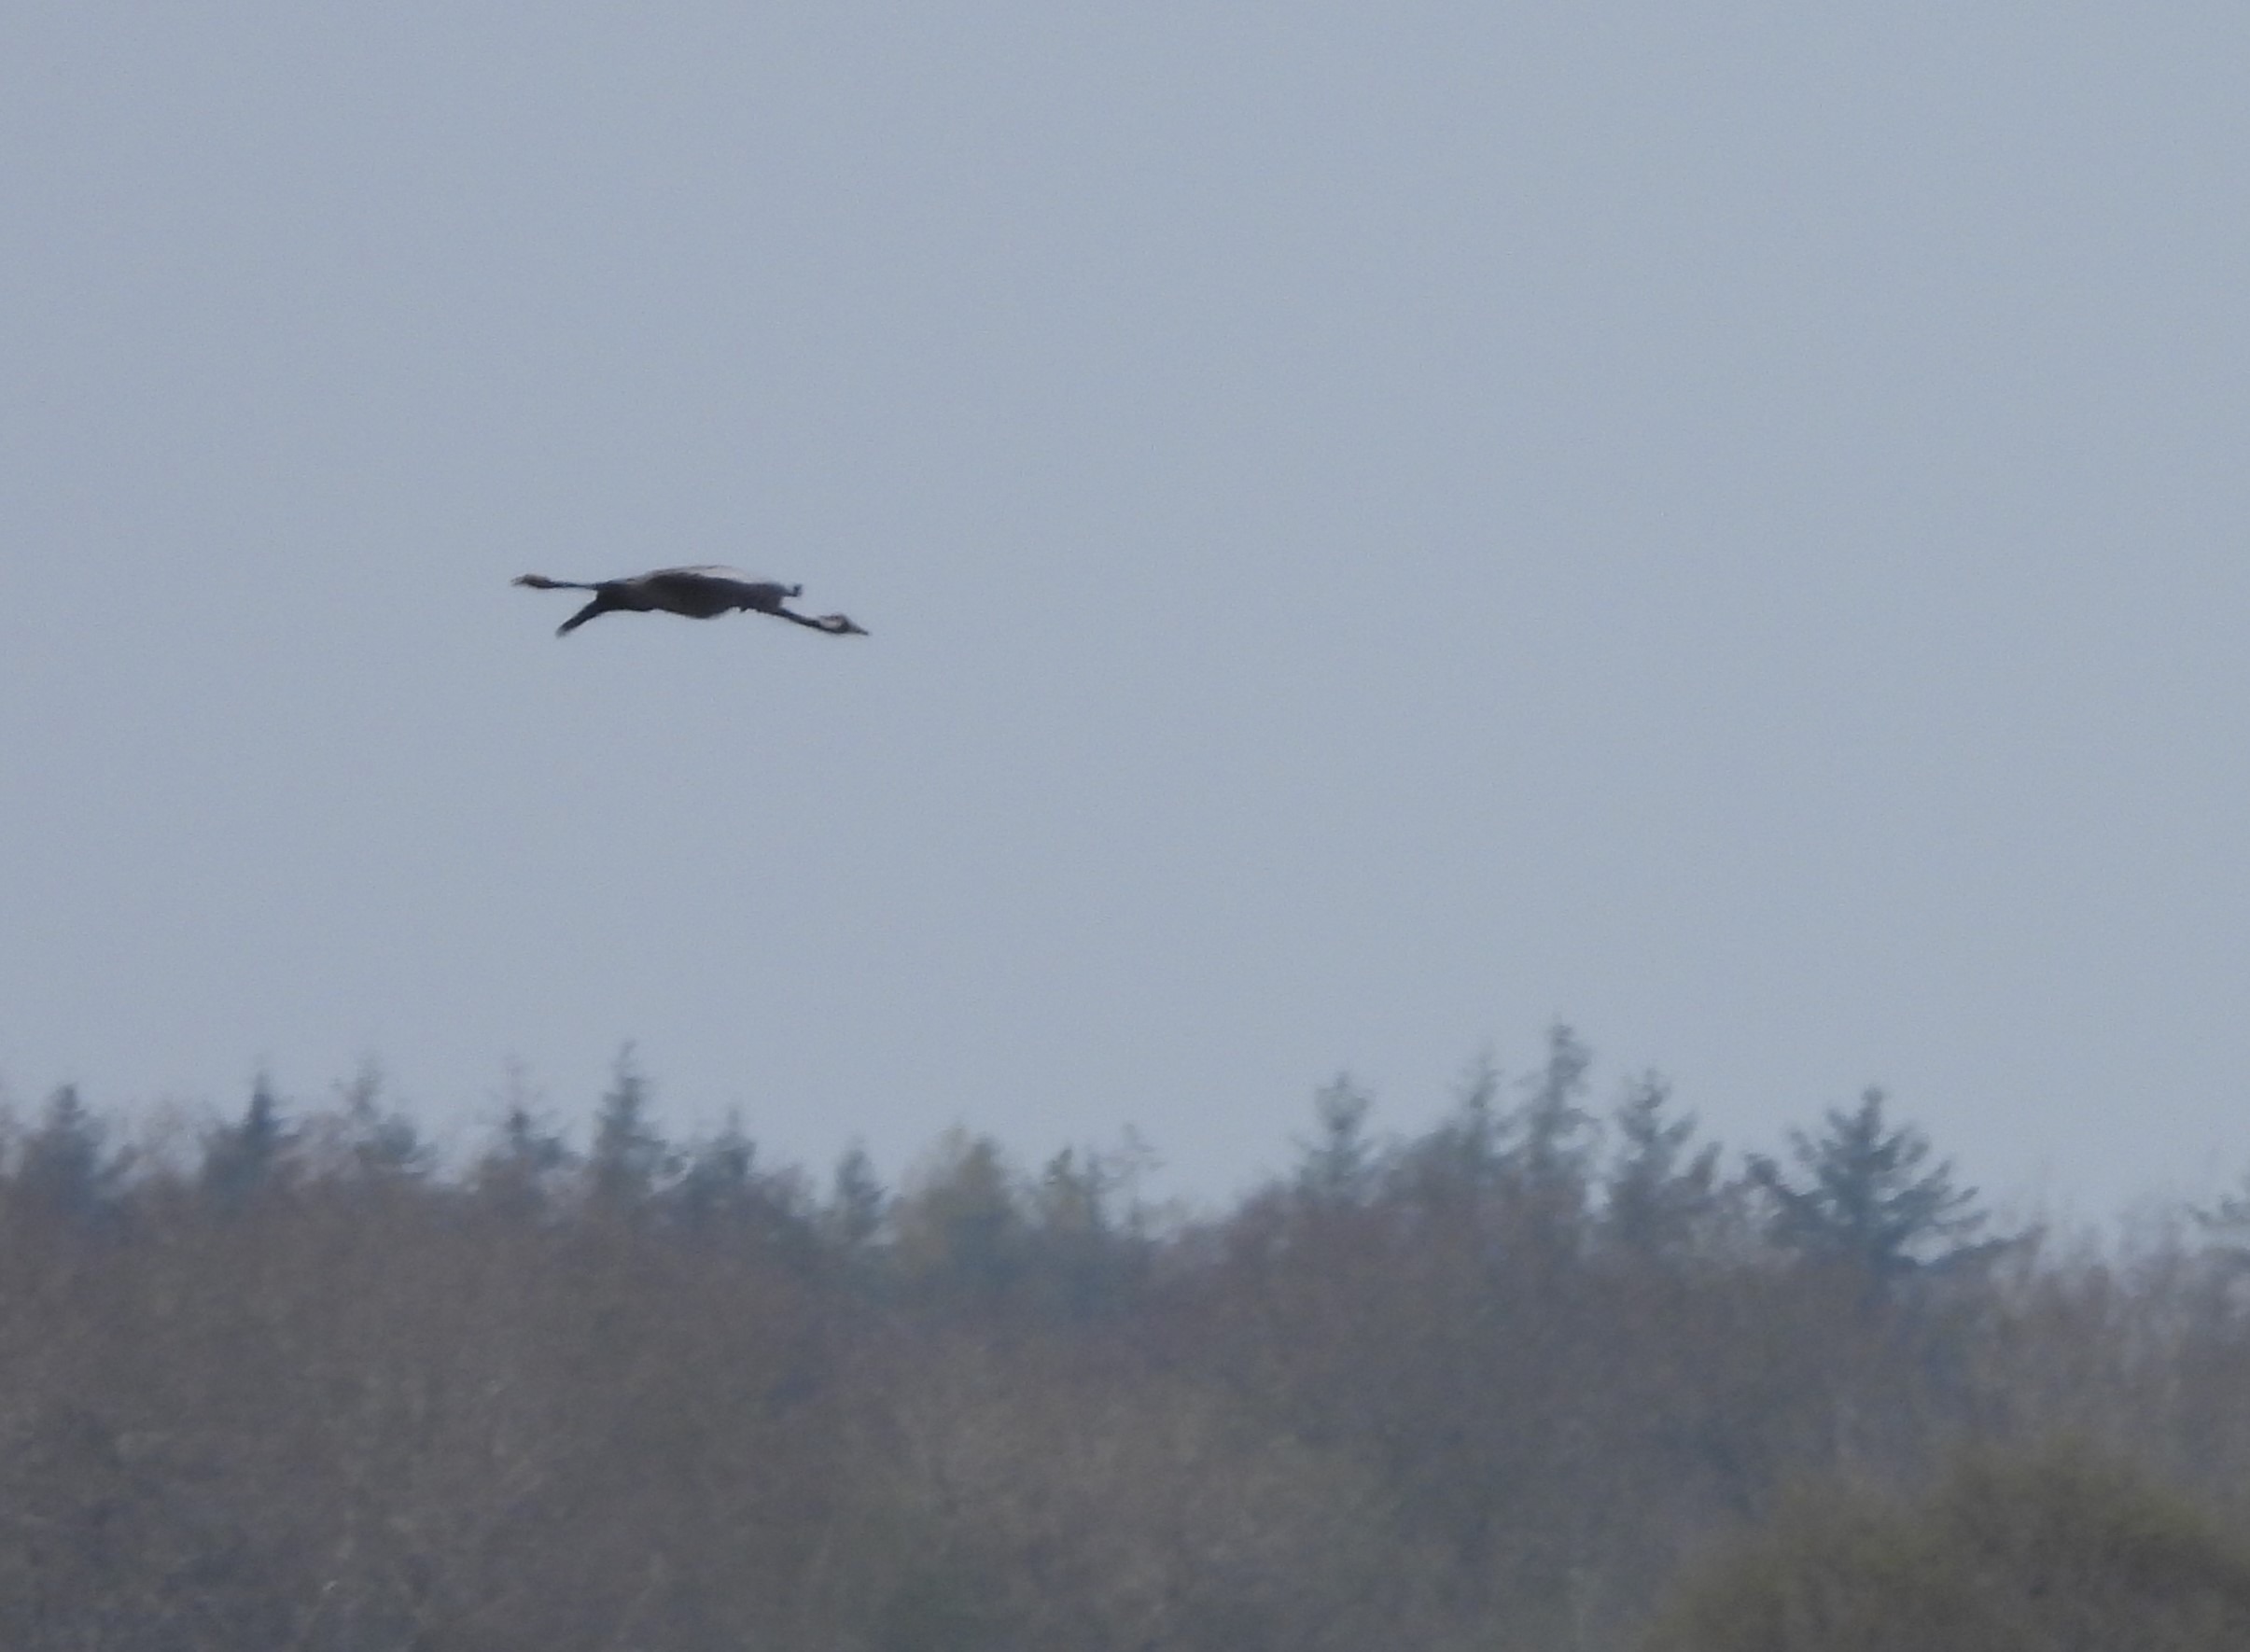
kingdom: Animalia
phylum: Chordata
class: Aves
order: Gruiformes
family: Gruidae
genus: Grus
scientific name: Grus grus
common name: Trane
